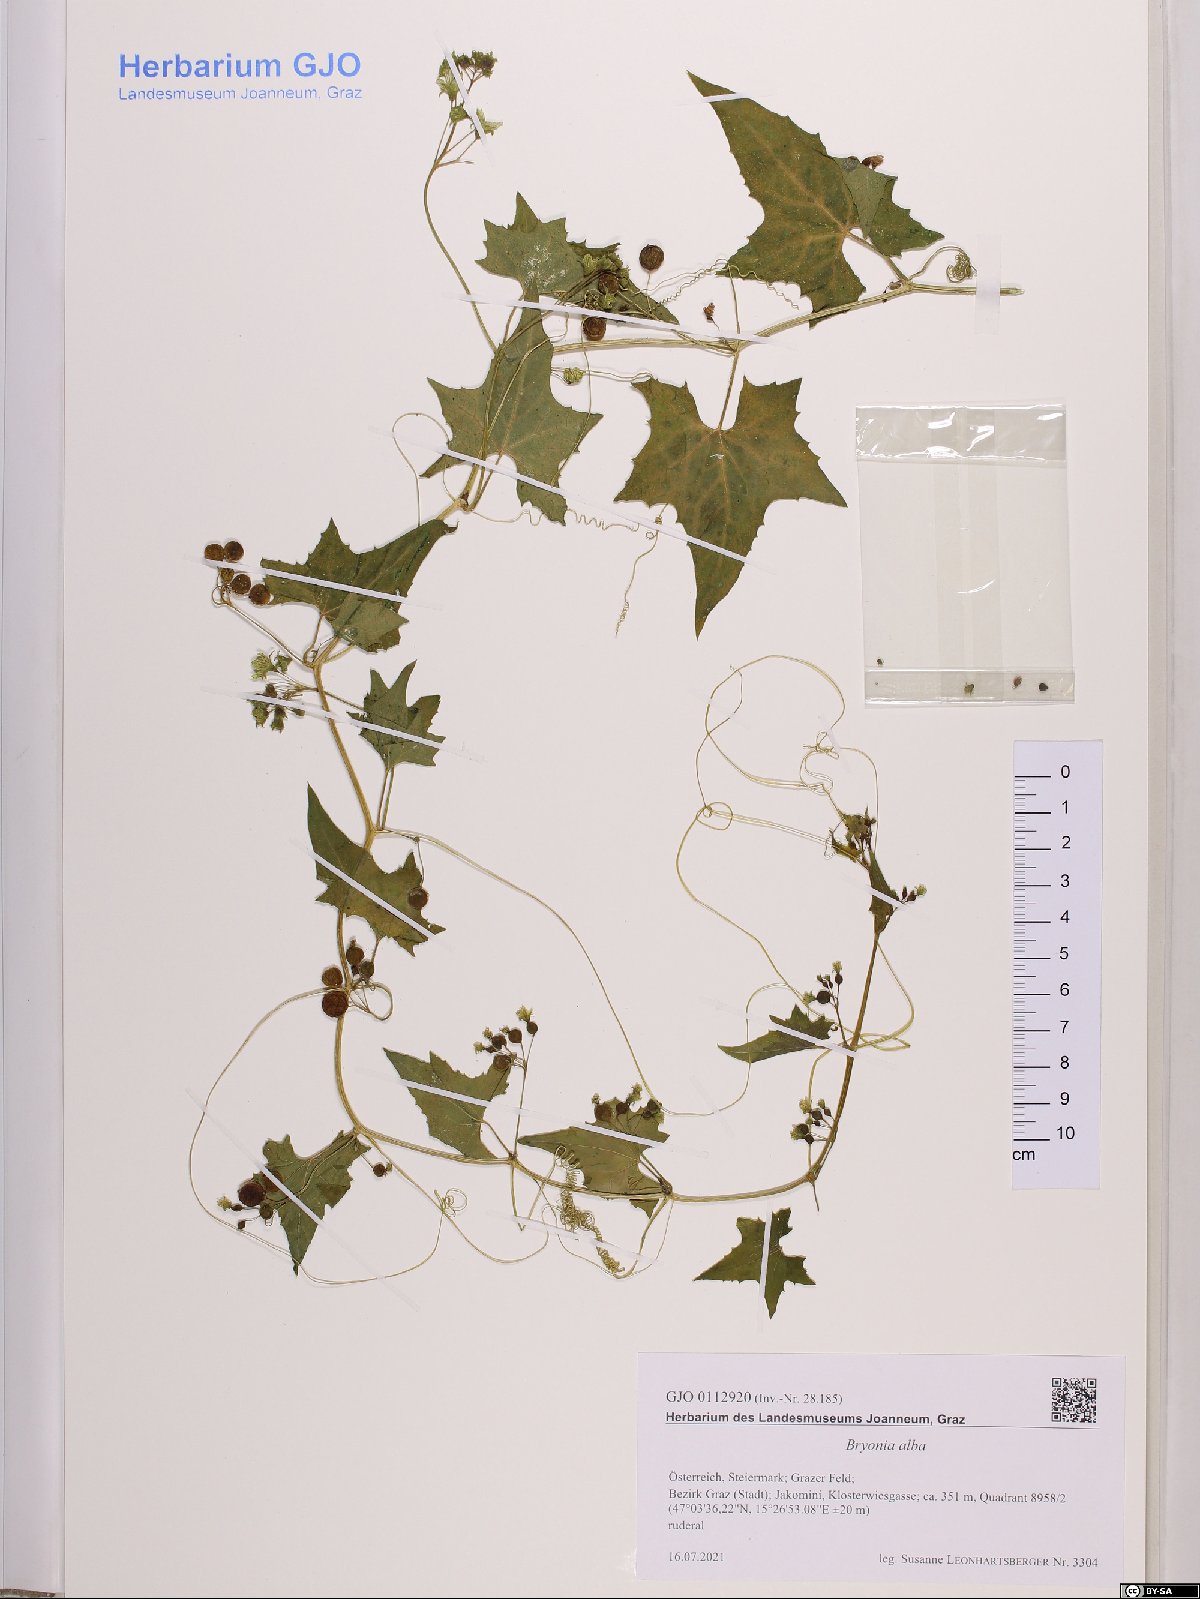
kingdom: Plantae
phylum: Tracheophyta
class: Magnoliopsida
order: Cucurbitales
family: Cucurbitaceae
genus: Bryonia
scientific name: Bryonia alba
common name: White bryony
